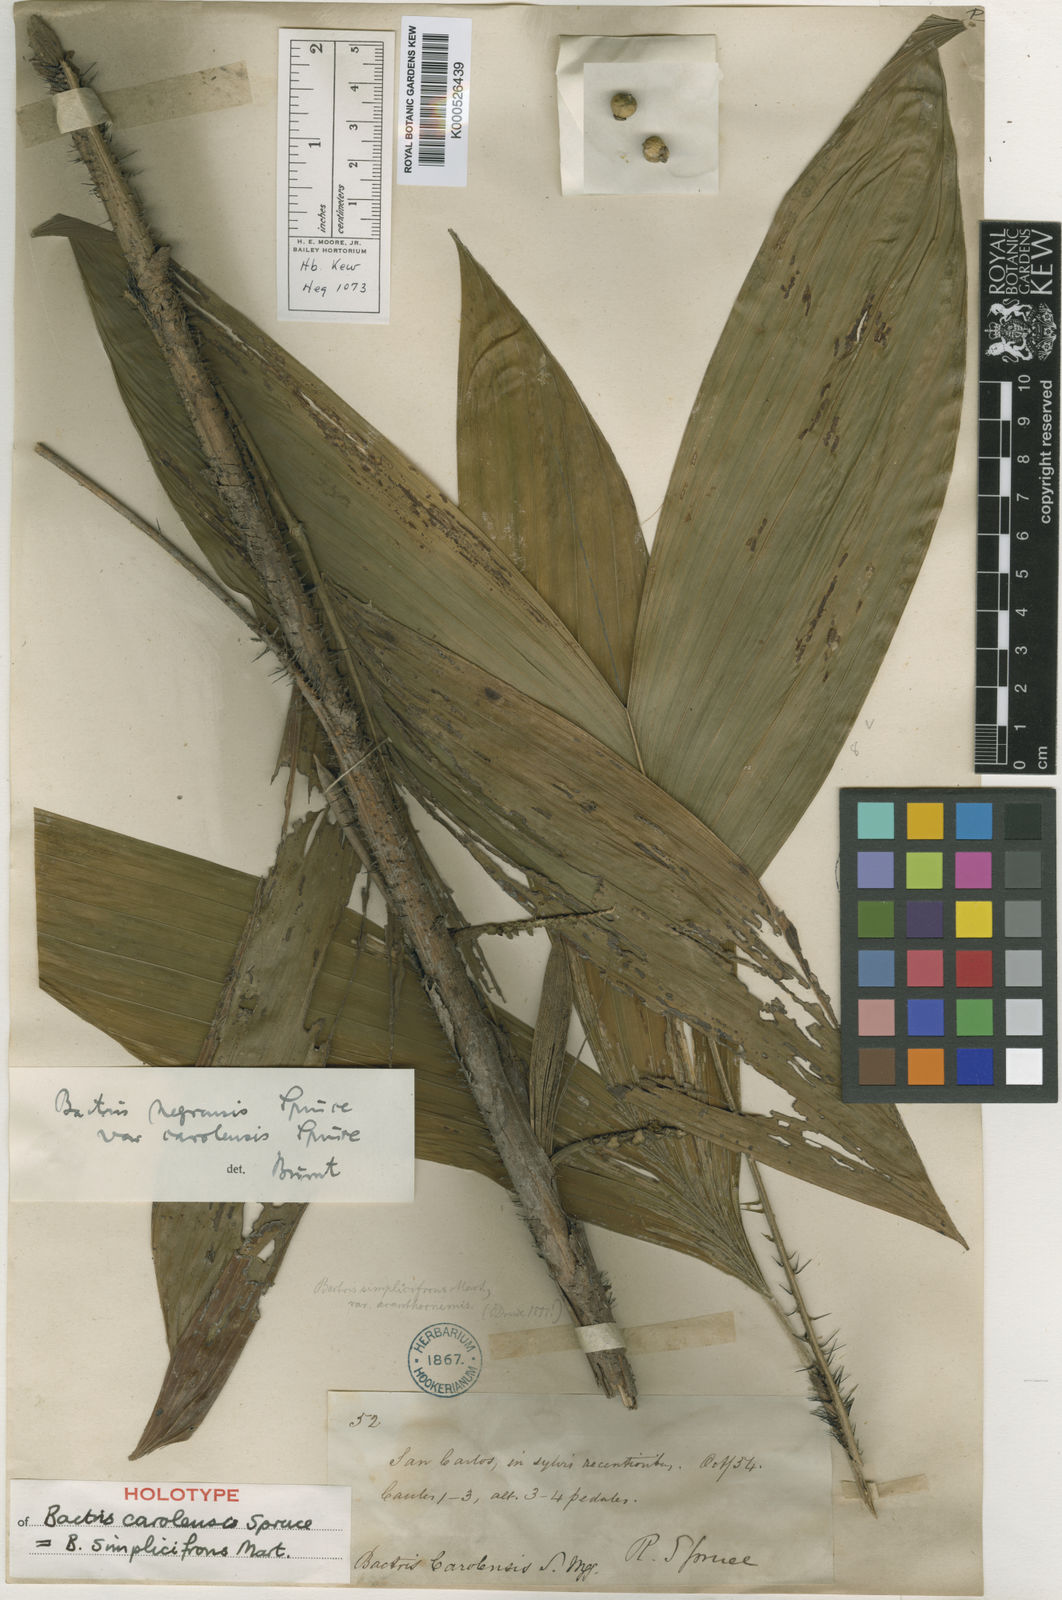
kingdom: Plantae
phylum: Tracheophyta
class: Liliopsida
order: Arecales
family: Arecaceae
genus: Bactris
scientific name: Bactris simplicifrons
